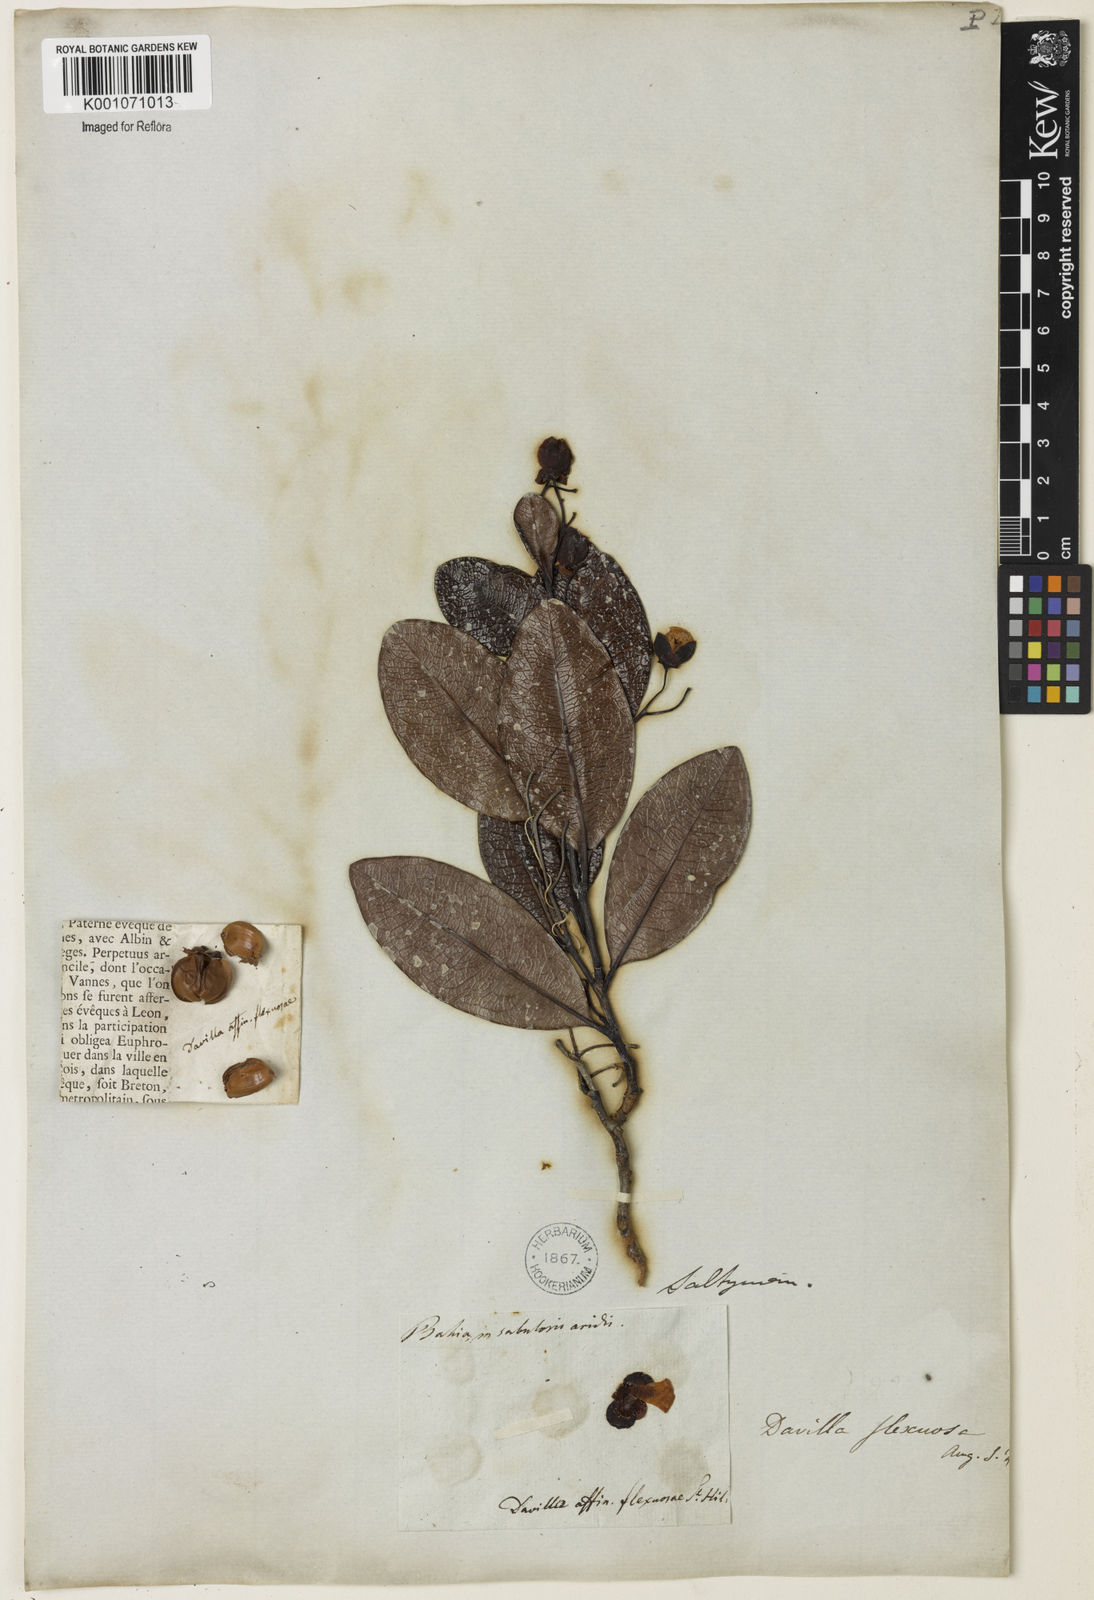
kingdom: Plantae
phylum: Tracheophyta
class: Magnoliopsida
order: Dilleniales
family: Dilleniaceae
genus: Davilla
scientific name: Davilla flexuosa
